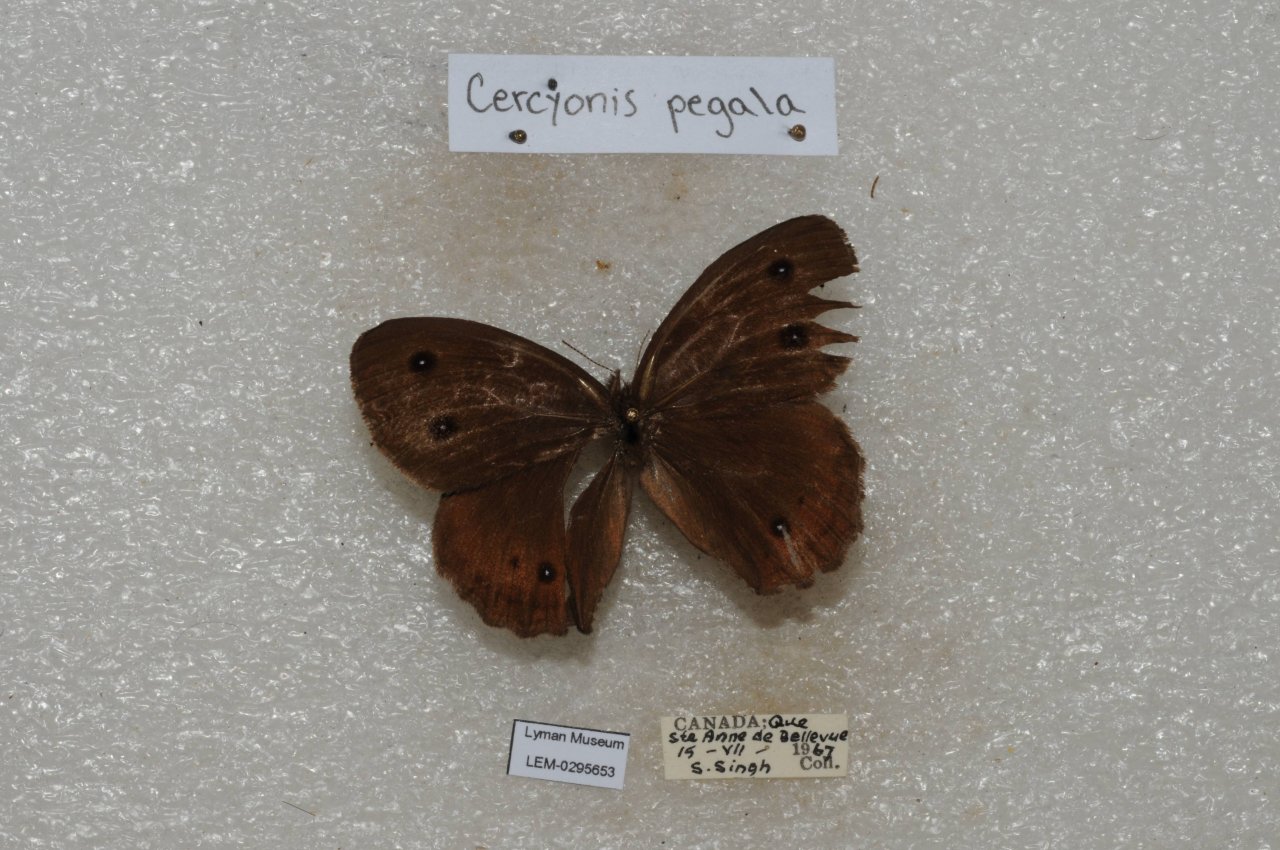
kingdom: Animalia
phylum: Arthropoda
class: Insecta
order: Lepidoptera
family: Nymphalidae
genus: Cercyonis
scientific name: Cercyonis pegala
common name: Common Wood-Nymph
